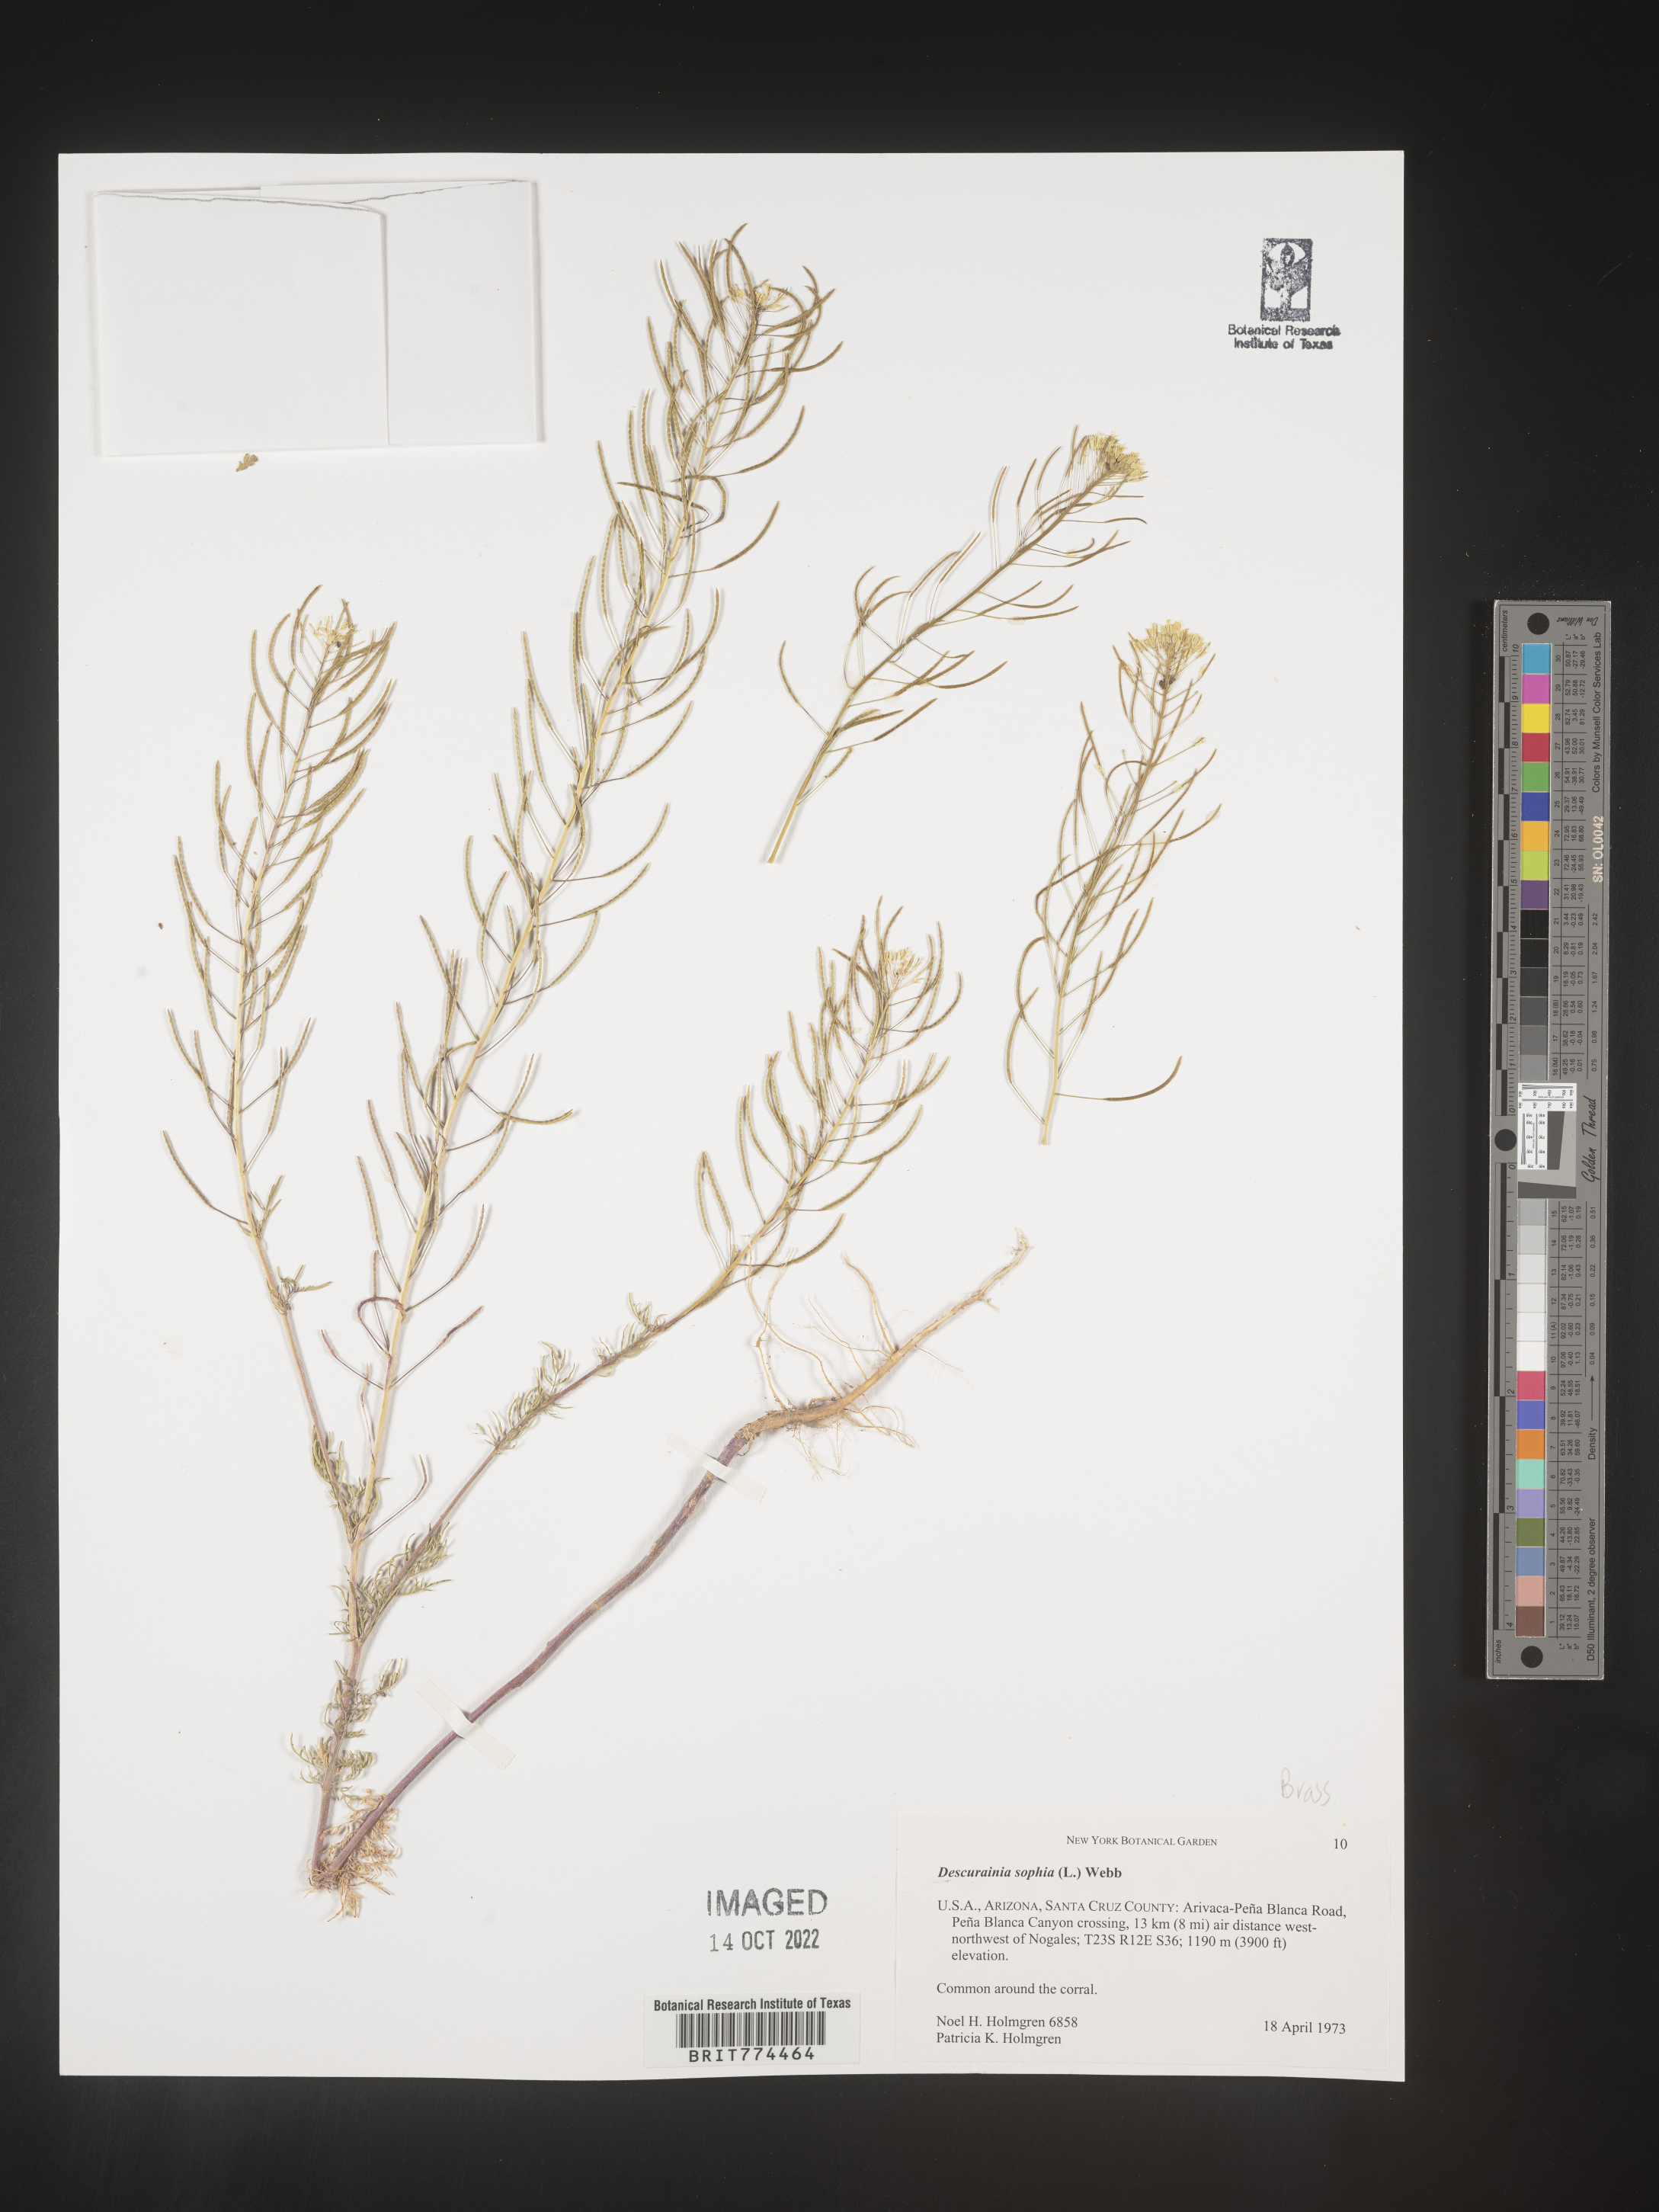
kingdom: Plantae
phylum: Tracheophyta
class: Magnoliopsida
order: Brassicales
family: Brassicaceae
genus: Descurainia
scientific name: Descurainia sophia
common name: Flixweed
